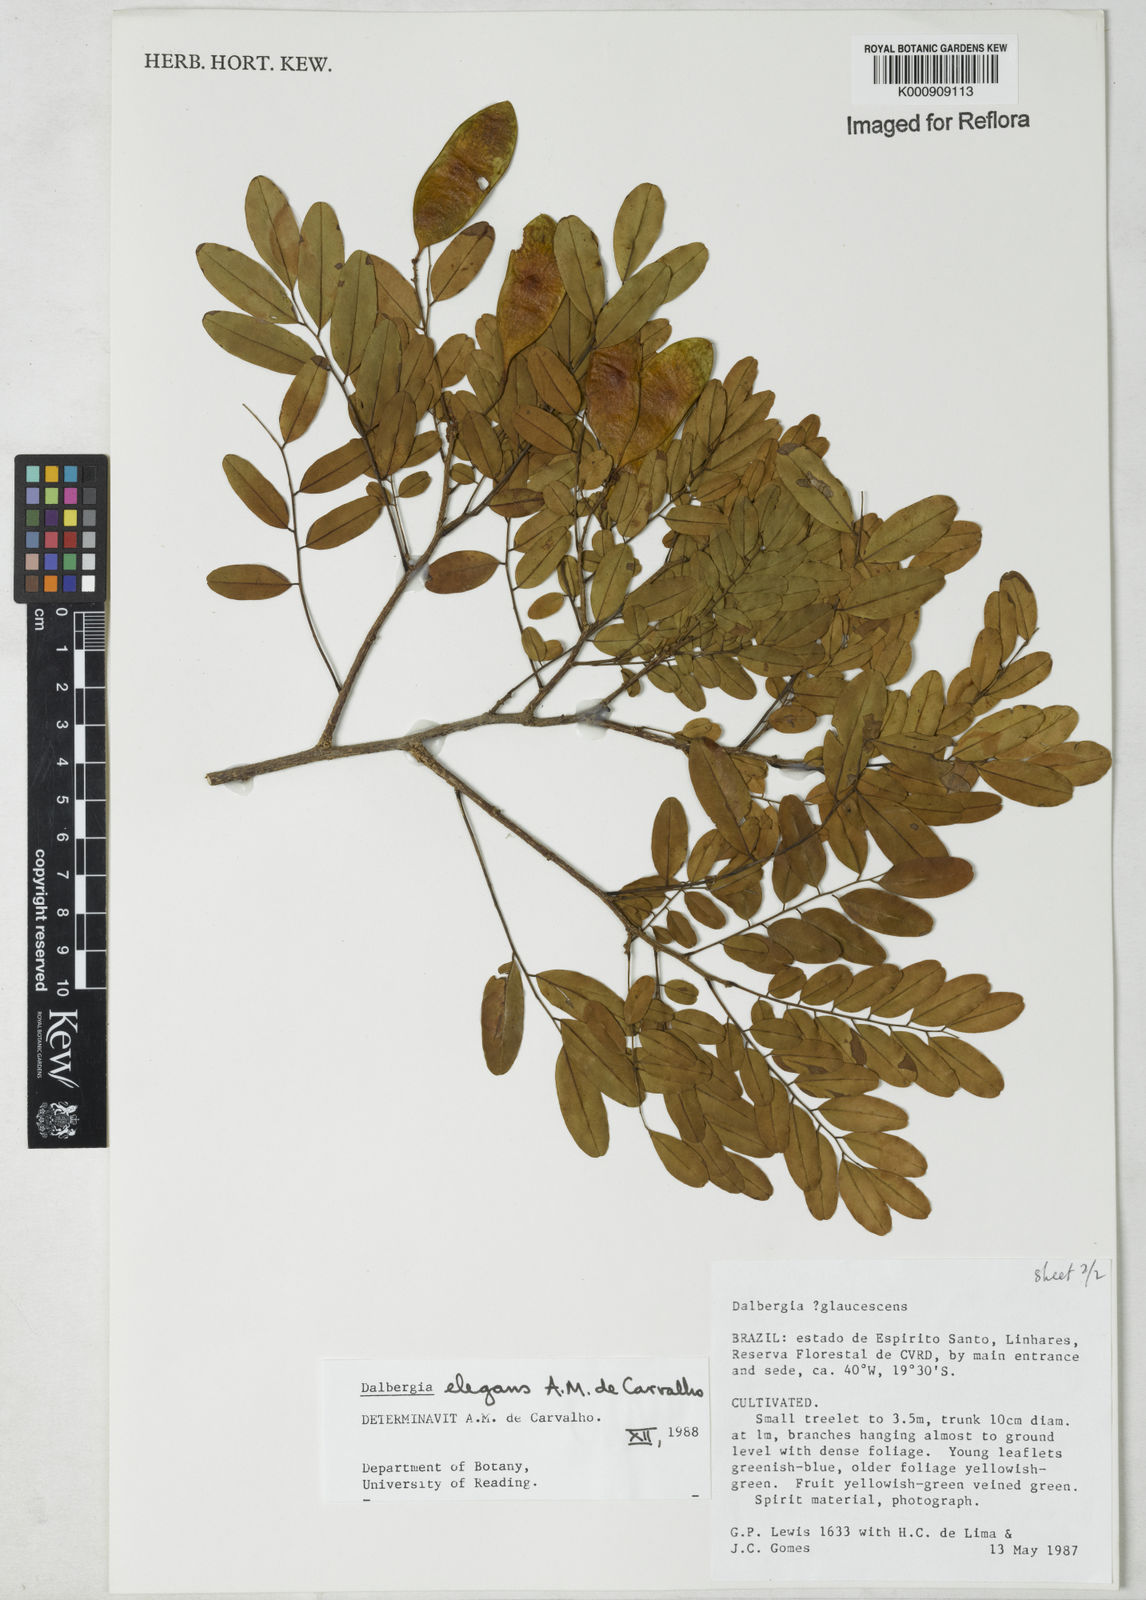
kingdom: Plantae
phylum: Tracheophyta
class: Magnoliopsida
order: Fabales
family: Fabaceae
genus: Dalbergia
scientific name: Dalbergia elegans
